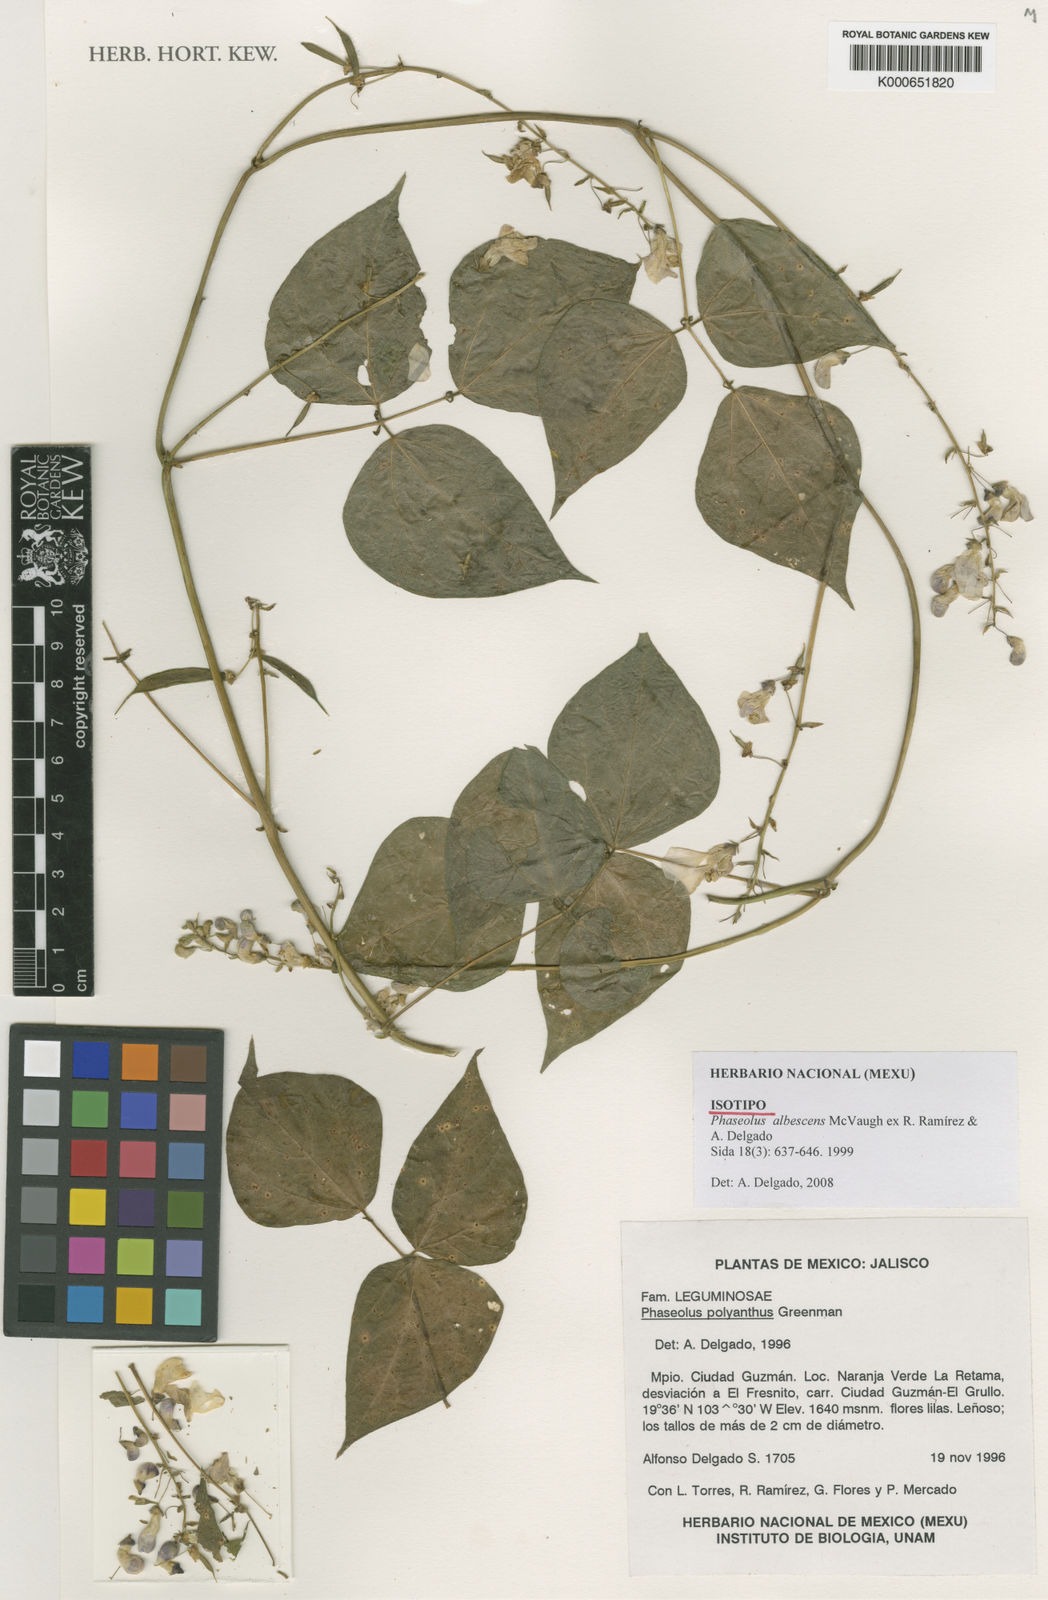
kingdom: Plantae
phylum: Tracheophyta
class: Magnoliopsida
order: Fabales
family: Fabaceae
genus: Phaseolus
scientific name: Phaseolus albescens
